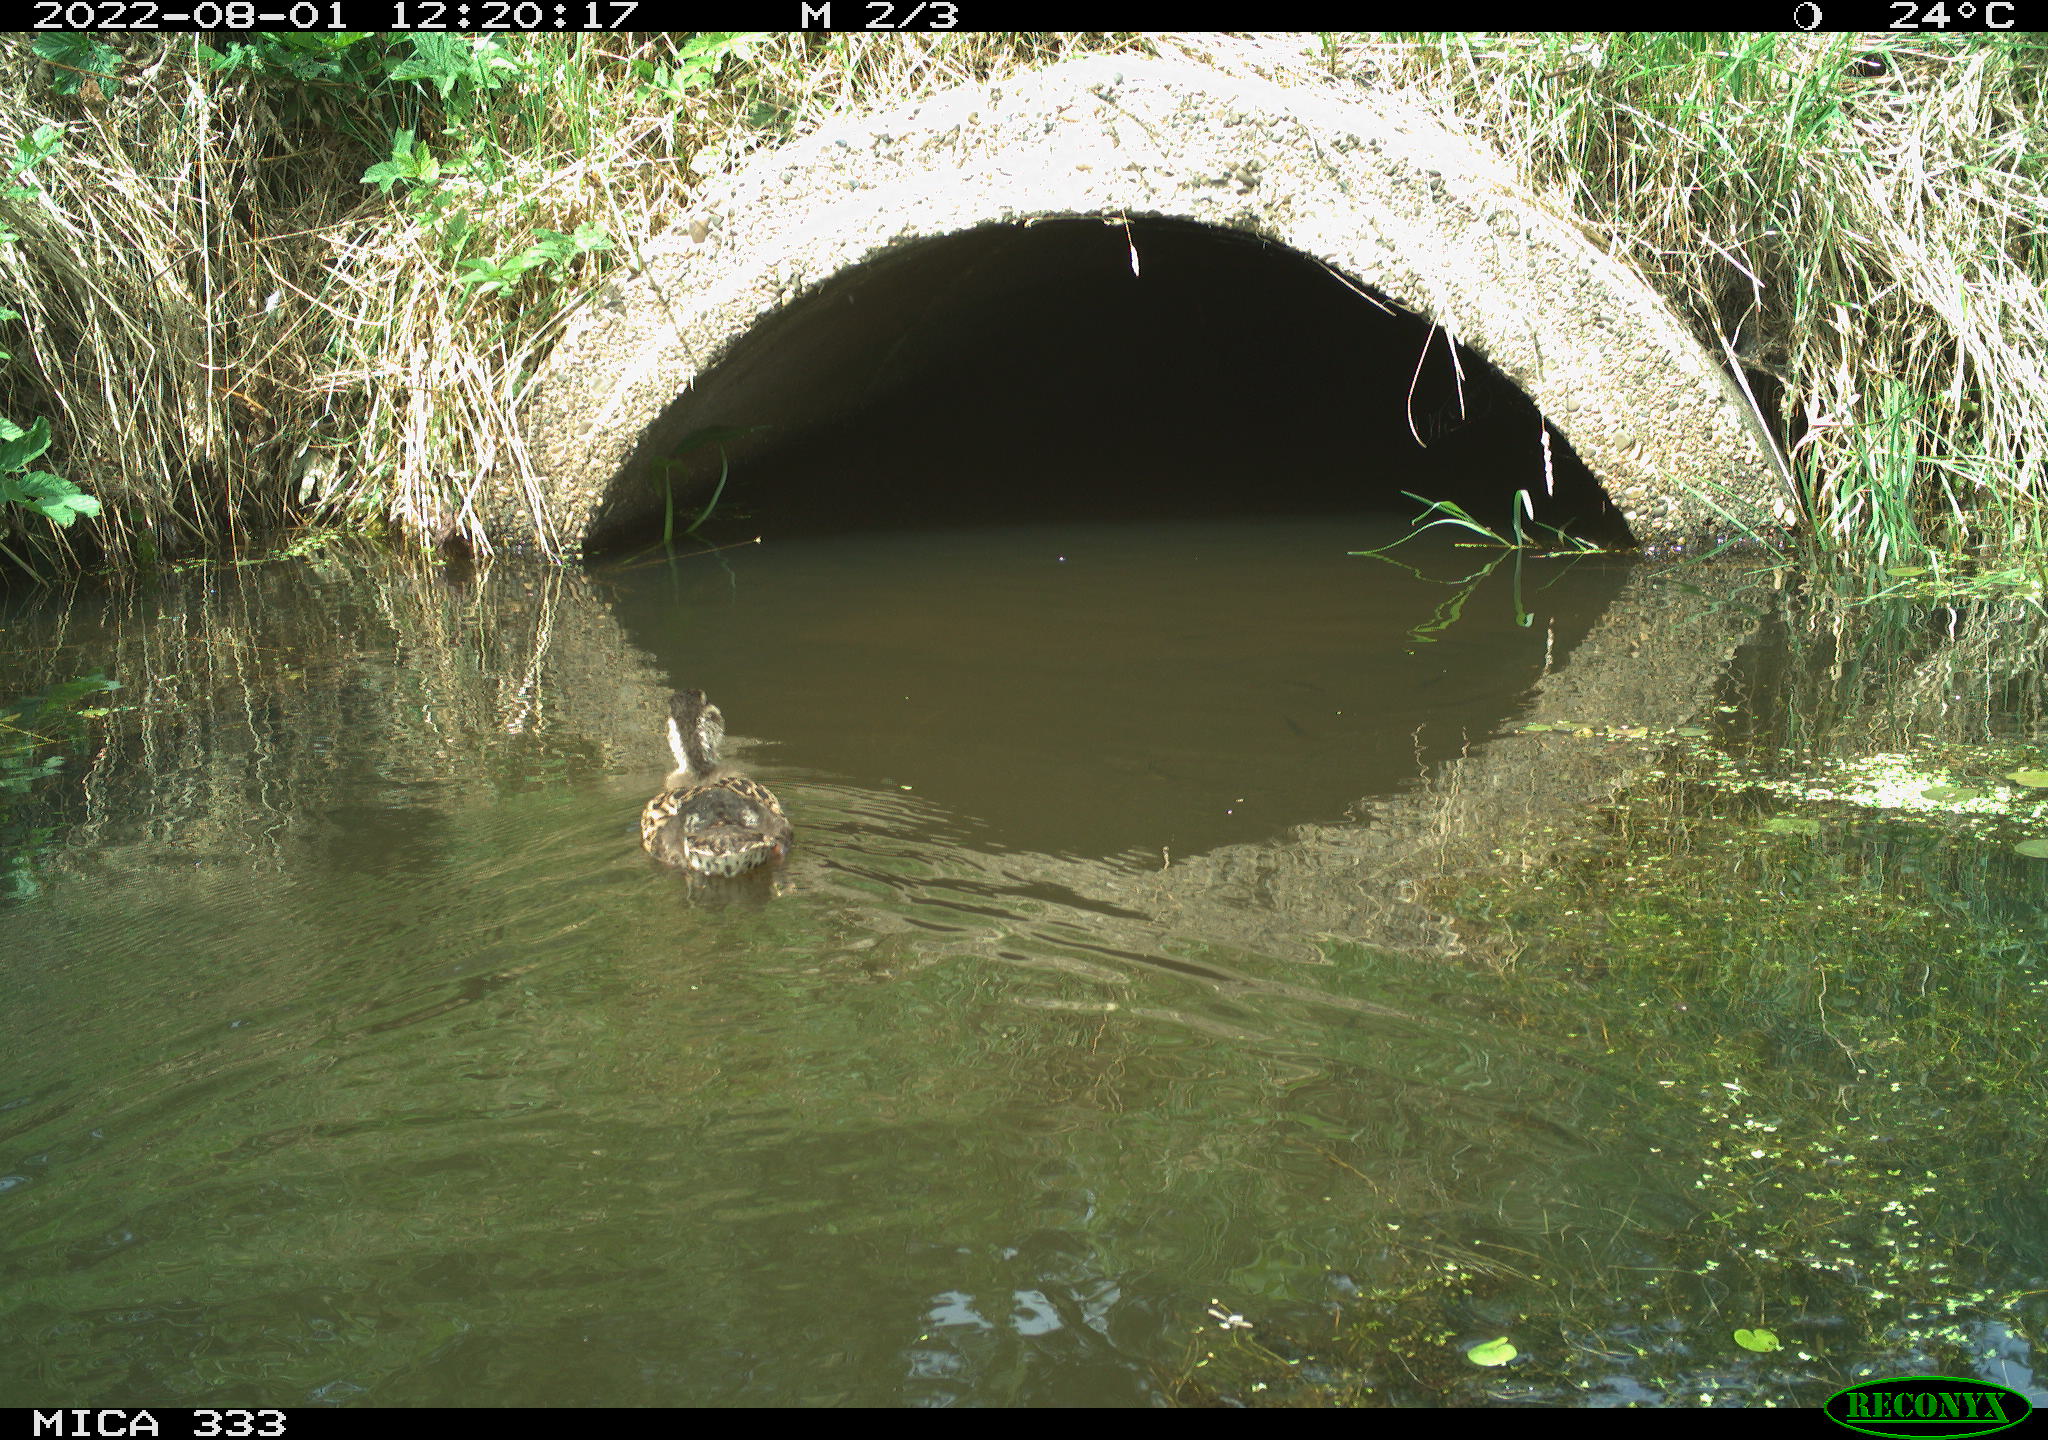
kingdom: Animalia
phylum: Chordata
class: Aves
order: Anseriformes
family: Anatidae
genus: Anas
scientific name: Anas platyrhynchos
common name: Mallard
